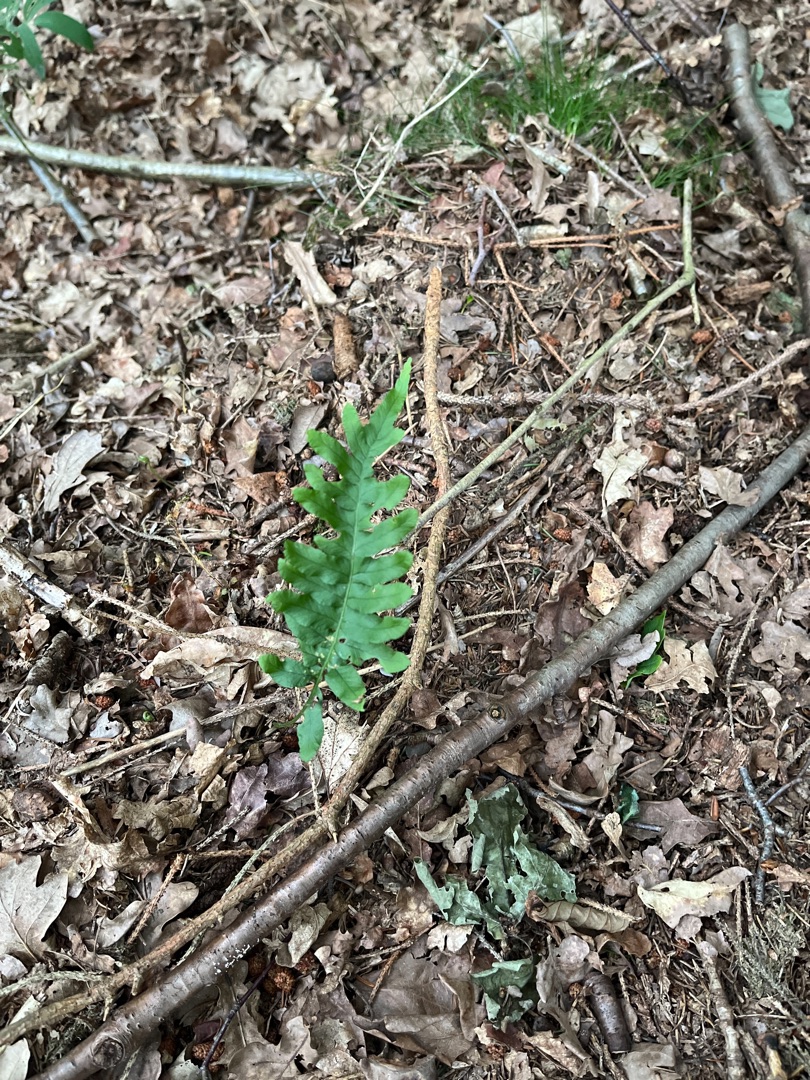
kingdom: Plantae
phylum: Tracheophyta
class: Polypodiopsida
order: Polypodiales
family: Polypodiaceae
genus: Polypodium
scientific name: Polypodium vulgare
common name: Almindelig engelsød
